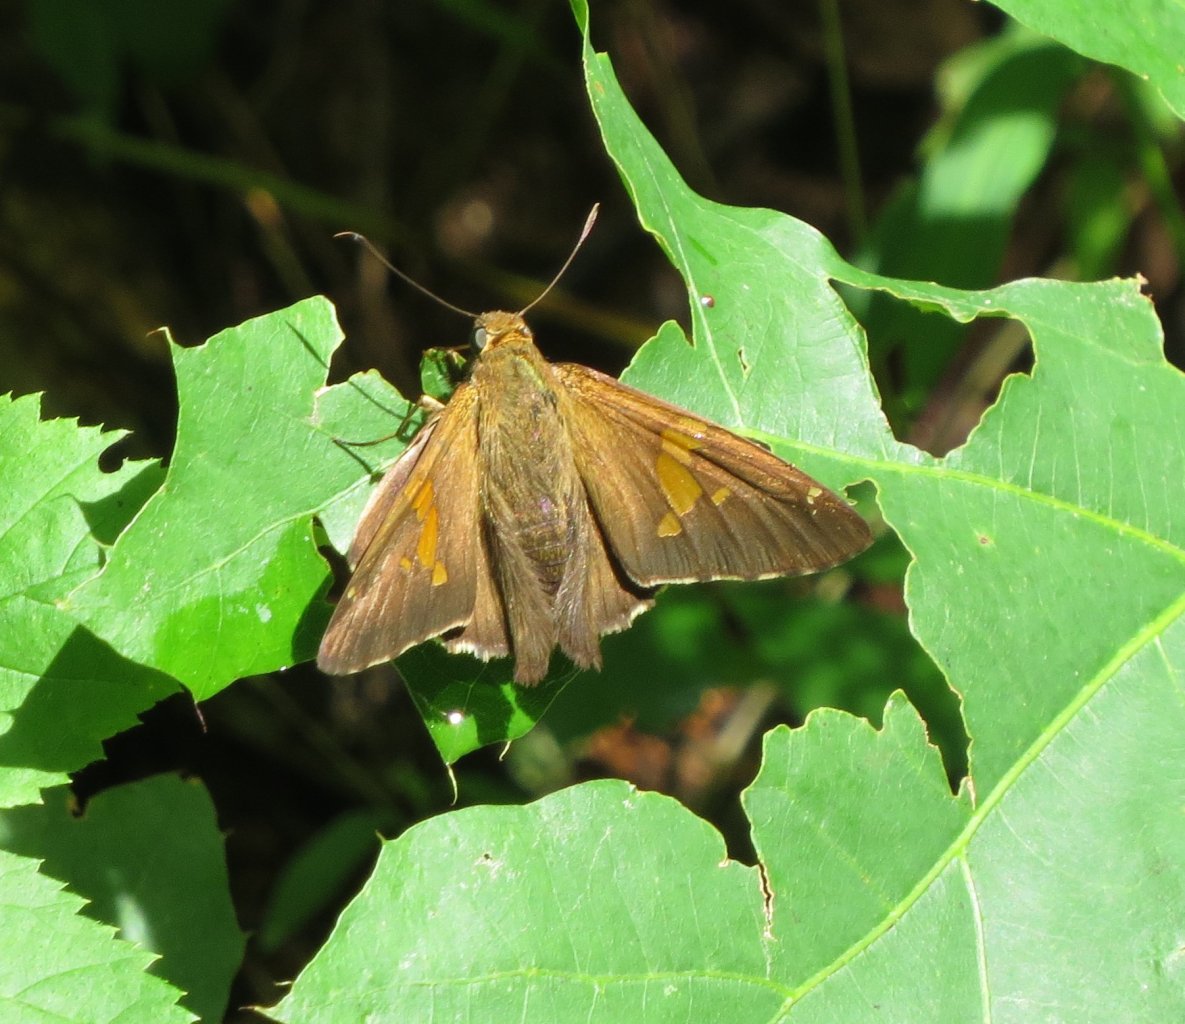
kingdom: Animalia
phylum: Arthropoda
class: Insecta
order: Lepidoptera
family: Hesperiidae
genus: Epargyreus
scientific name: Epargyreus clarus
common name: Silver-spotted Skipper
